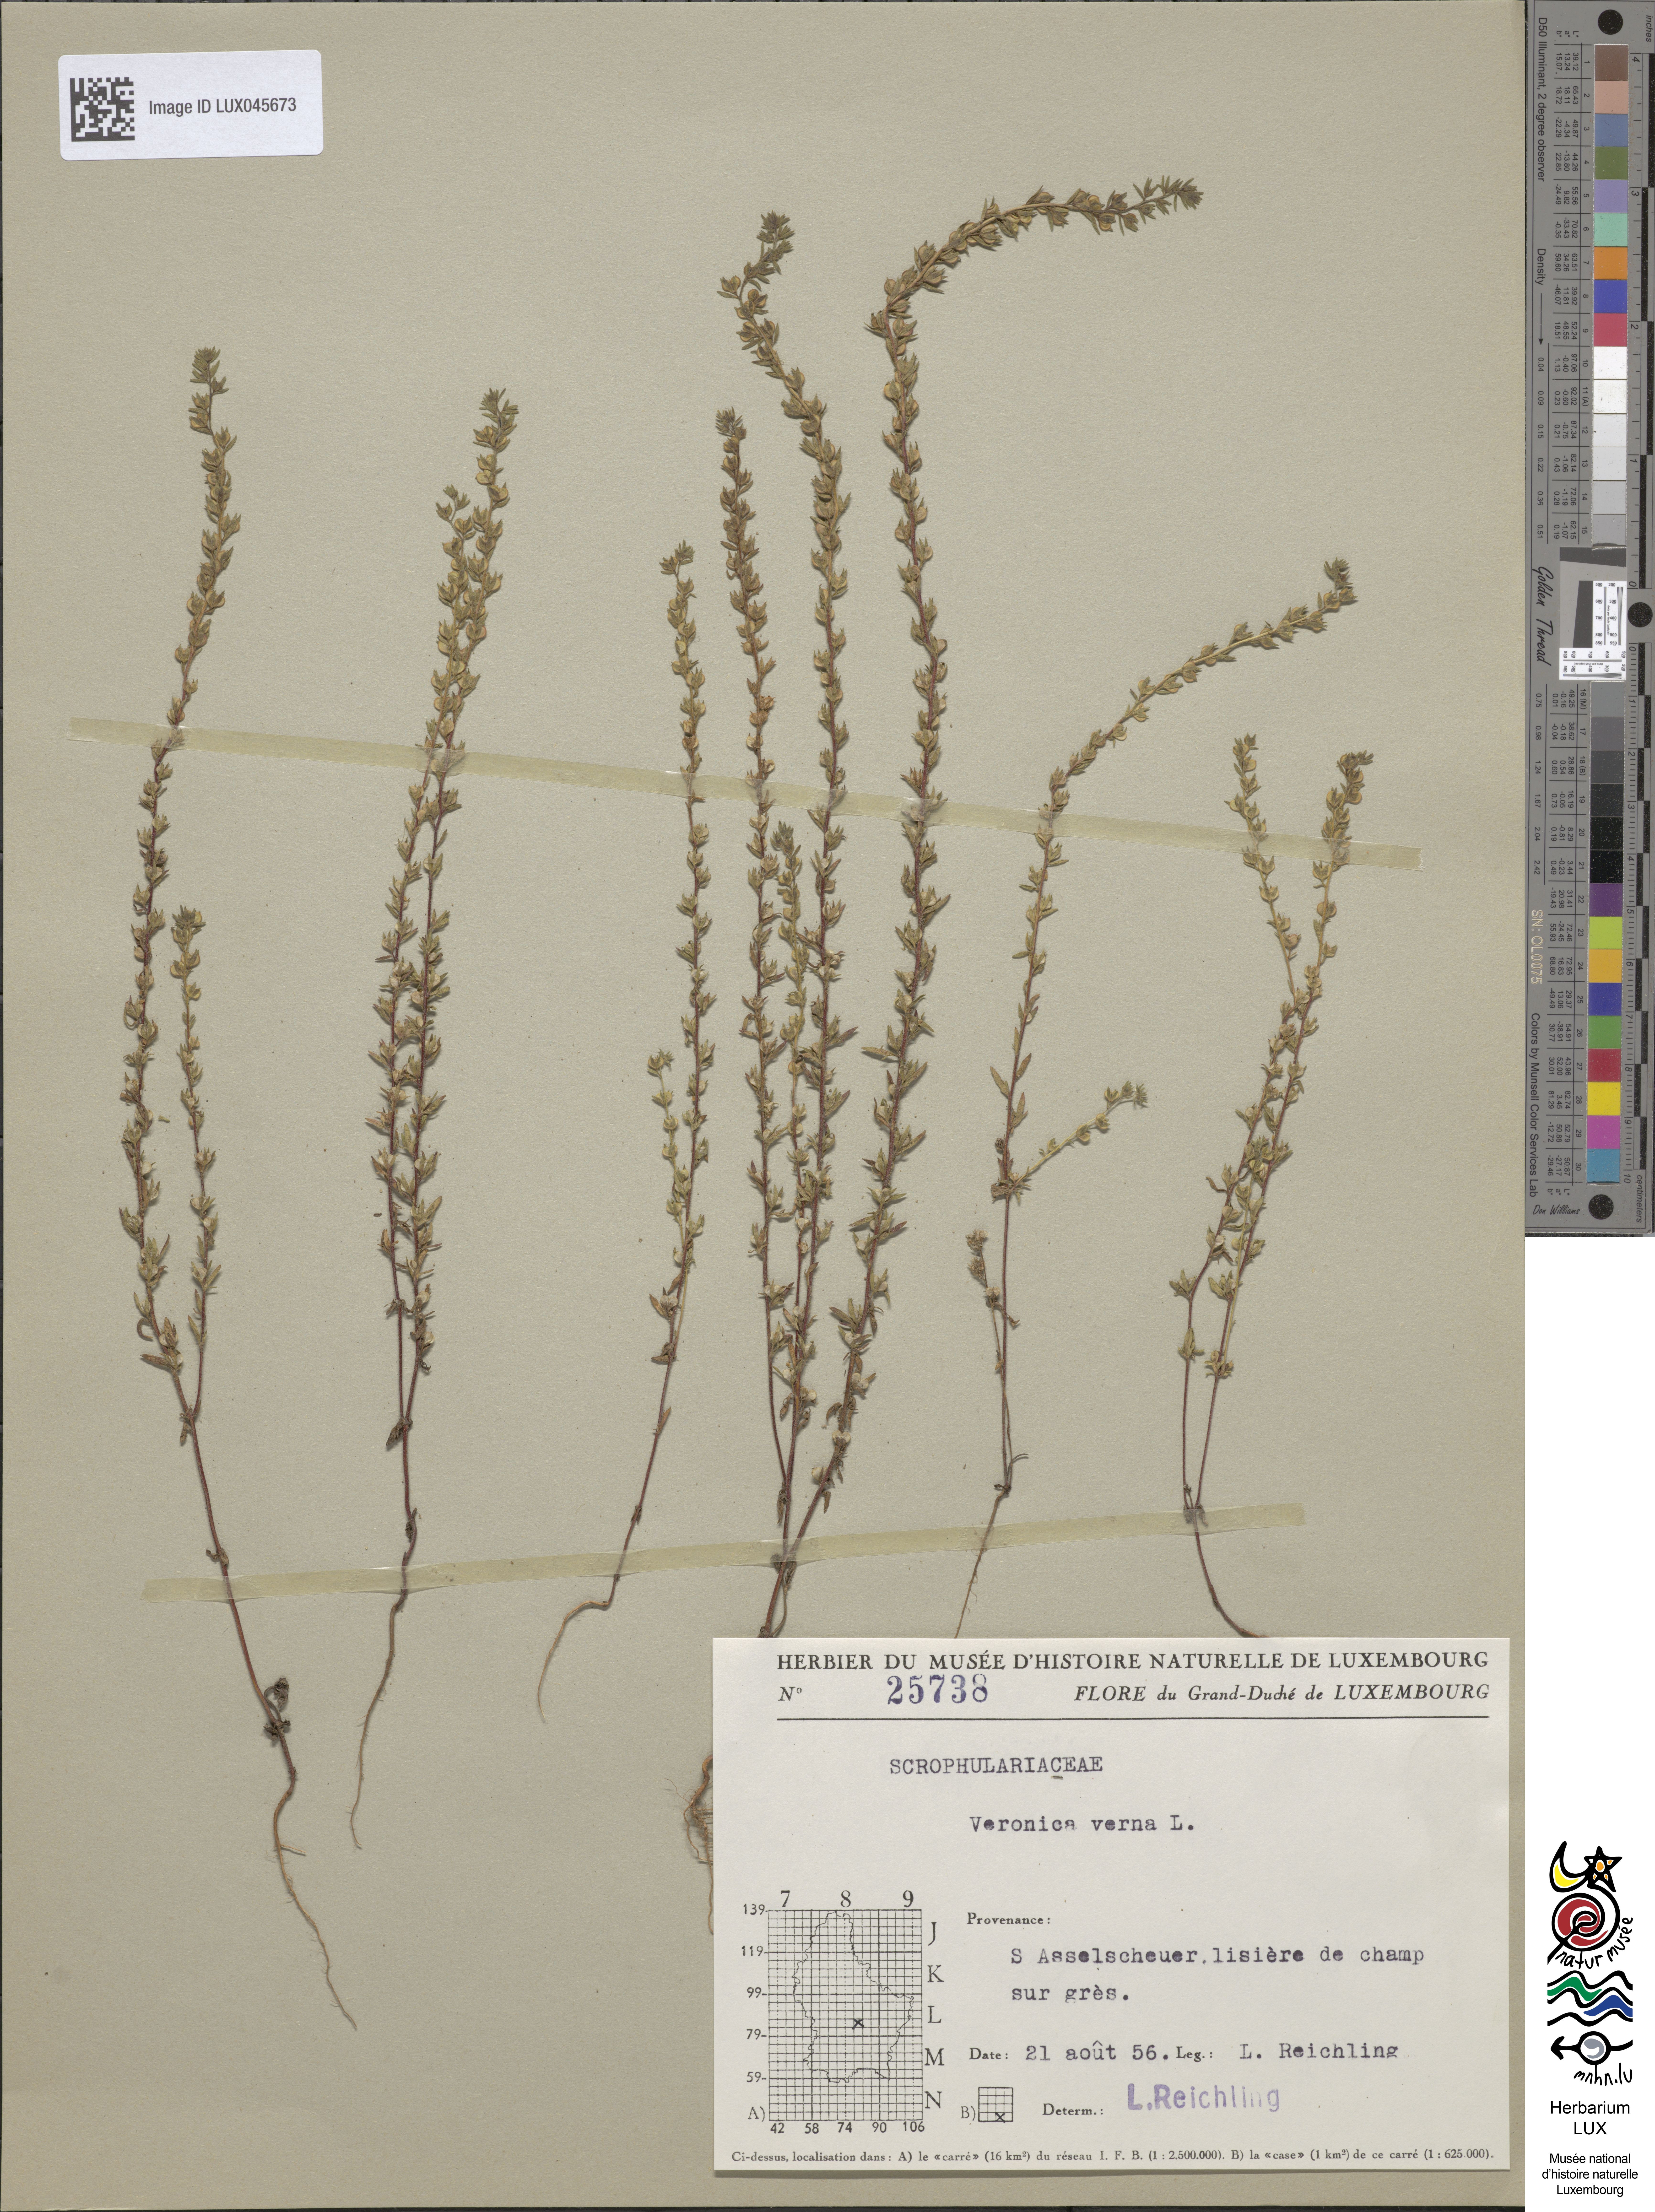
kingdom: Plantae
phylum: Tracheophyta
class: Magnoliopsida
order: Lamiales
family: Plantaginaceae
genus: Veronica
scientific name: Veronica verna
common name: Spring speedwell
